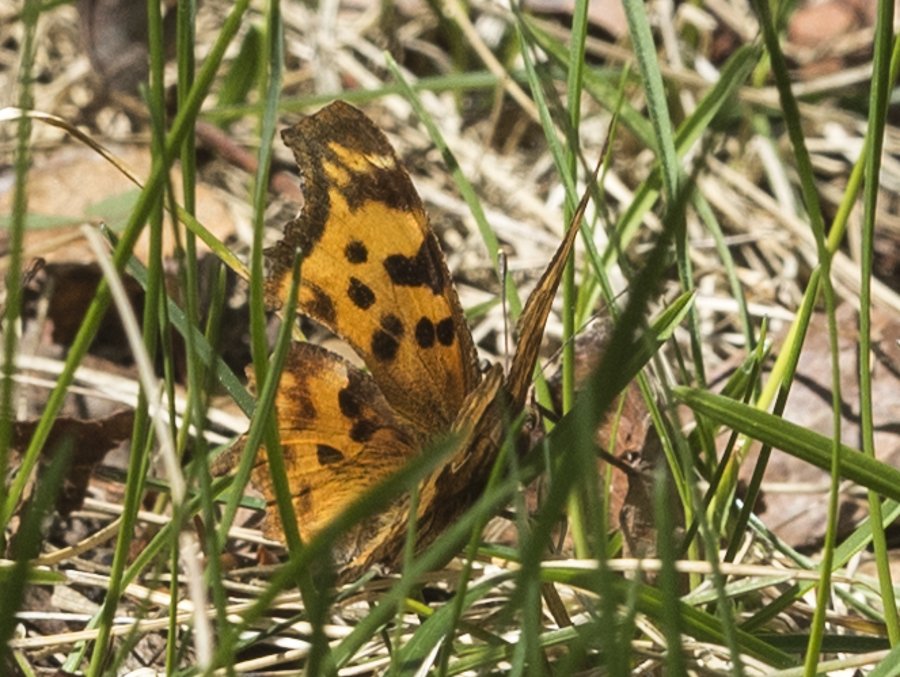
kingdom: Animalia
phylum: Arthropoda
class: Insecta
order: Lepidoptera
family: Nymphalidae
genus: Polygonia
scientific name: Polygonia satyrus
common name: Satyr Comma
